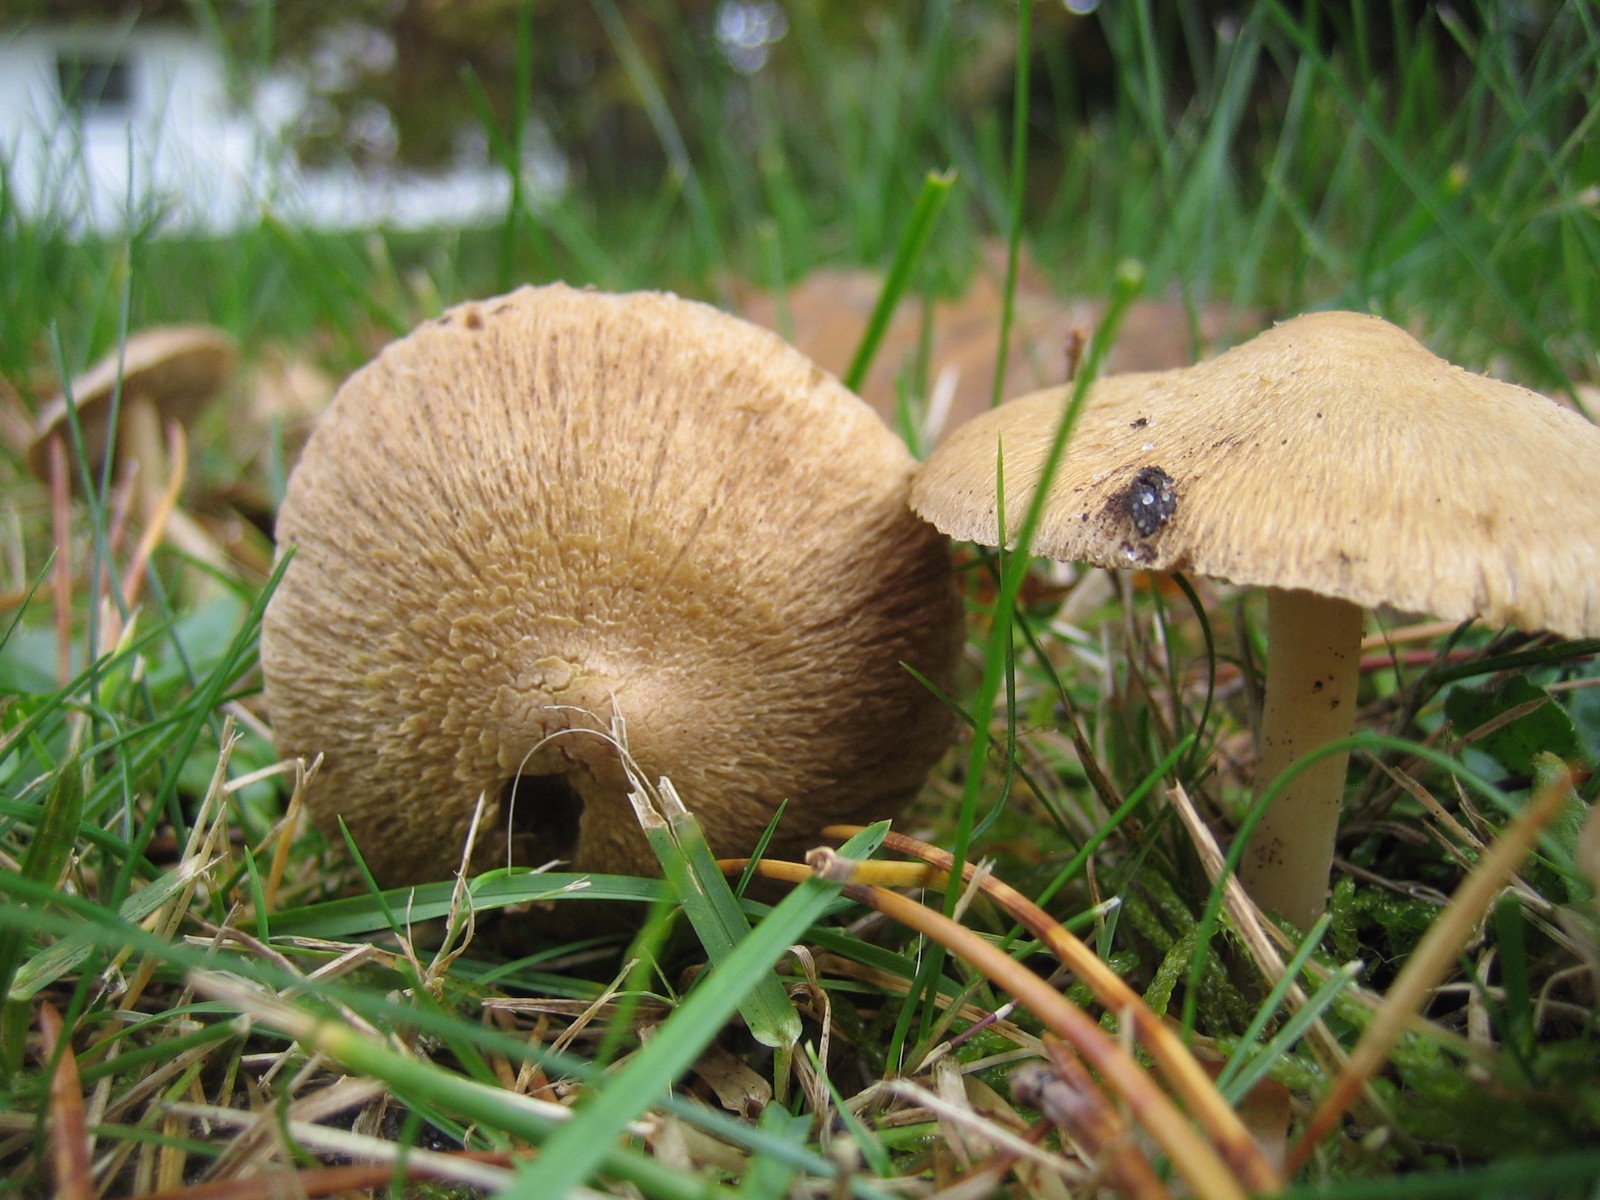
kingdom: Fungi
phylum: Basidiomycota
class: Agaricomycetes
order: Agaricales
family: Inocybaceae
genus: Inocybe
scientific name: Inocybe
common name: trævlhat
